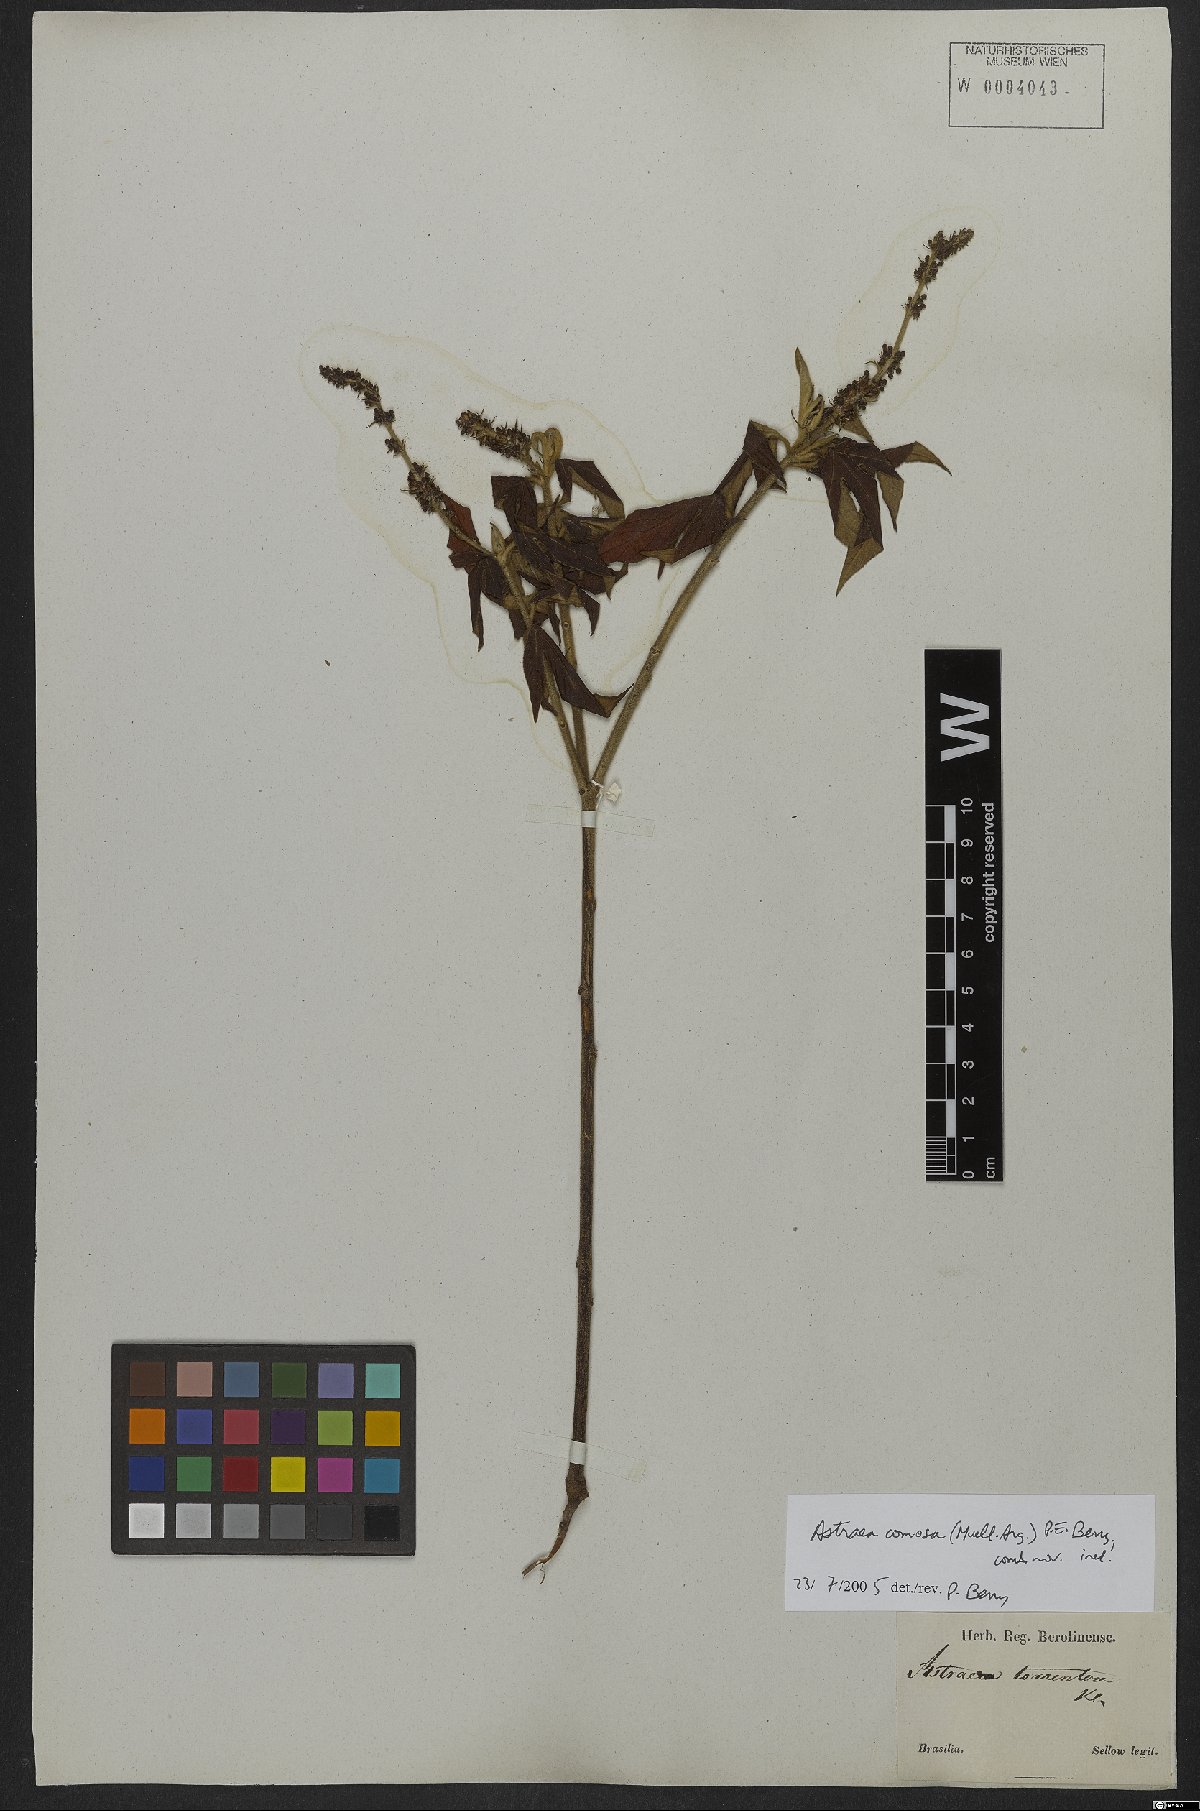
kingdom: Plantae
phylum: Tracheophyta
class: Magnoliopsida
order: Malpighiales
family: Euphorbiaceae
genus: Astraea
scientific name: Astraea comosa
